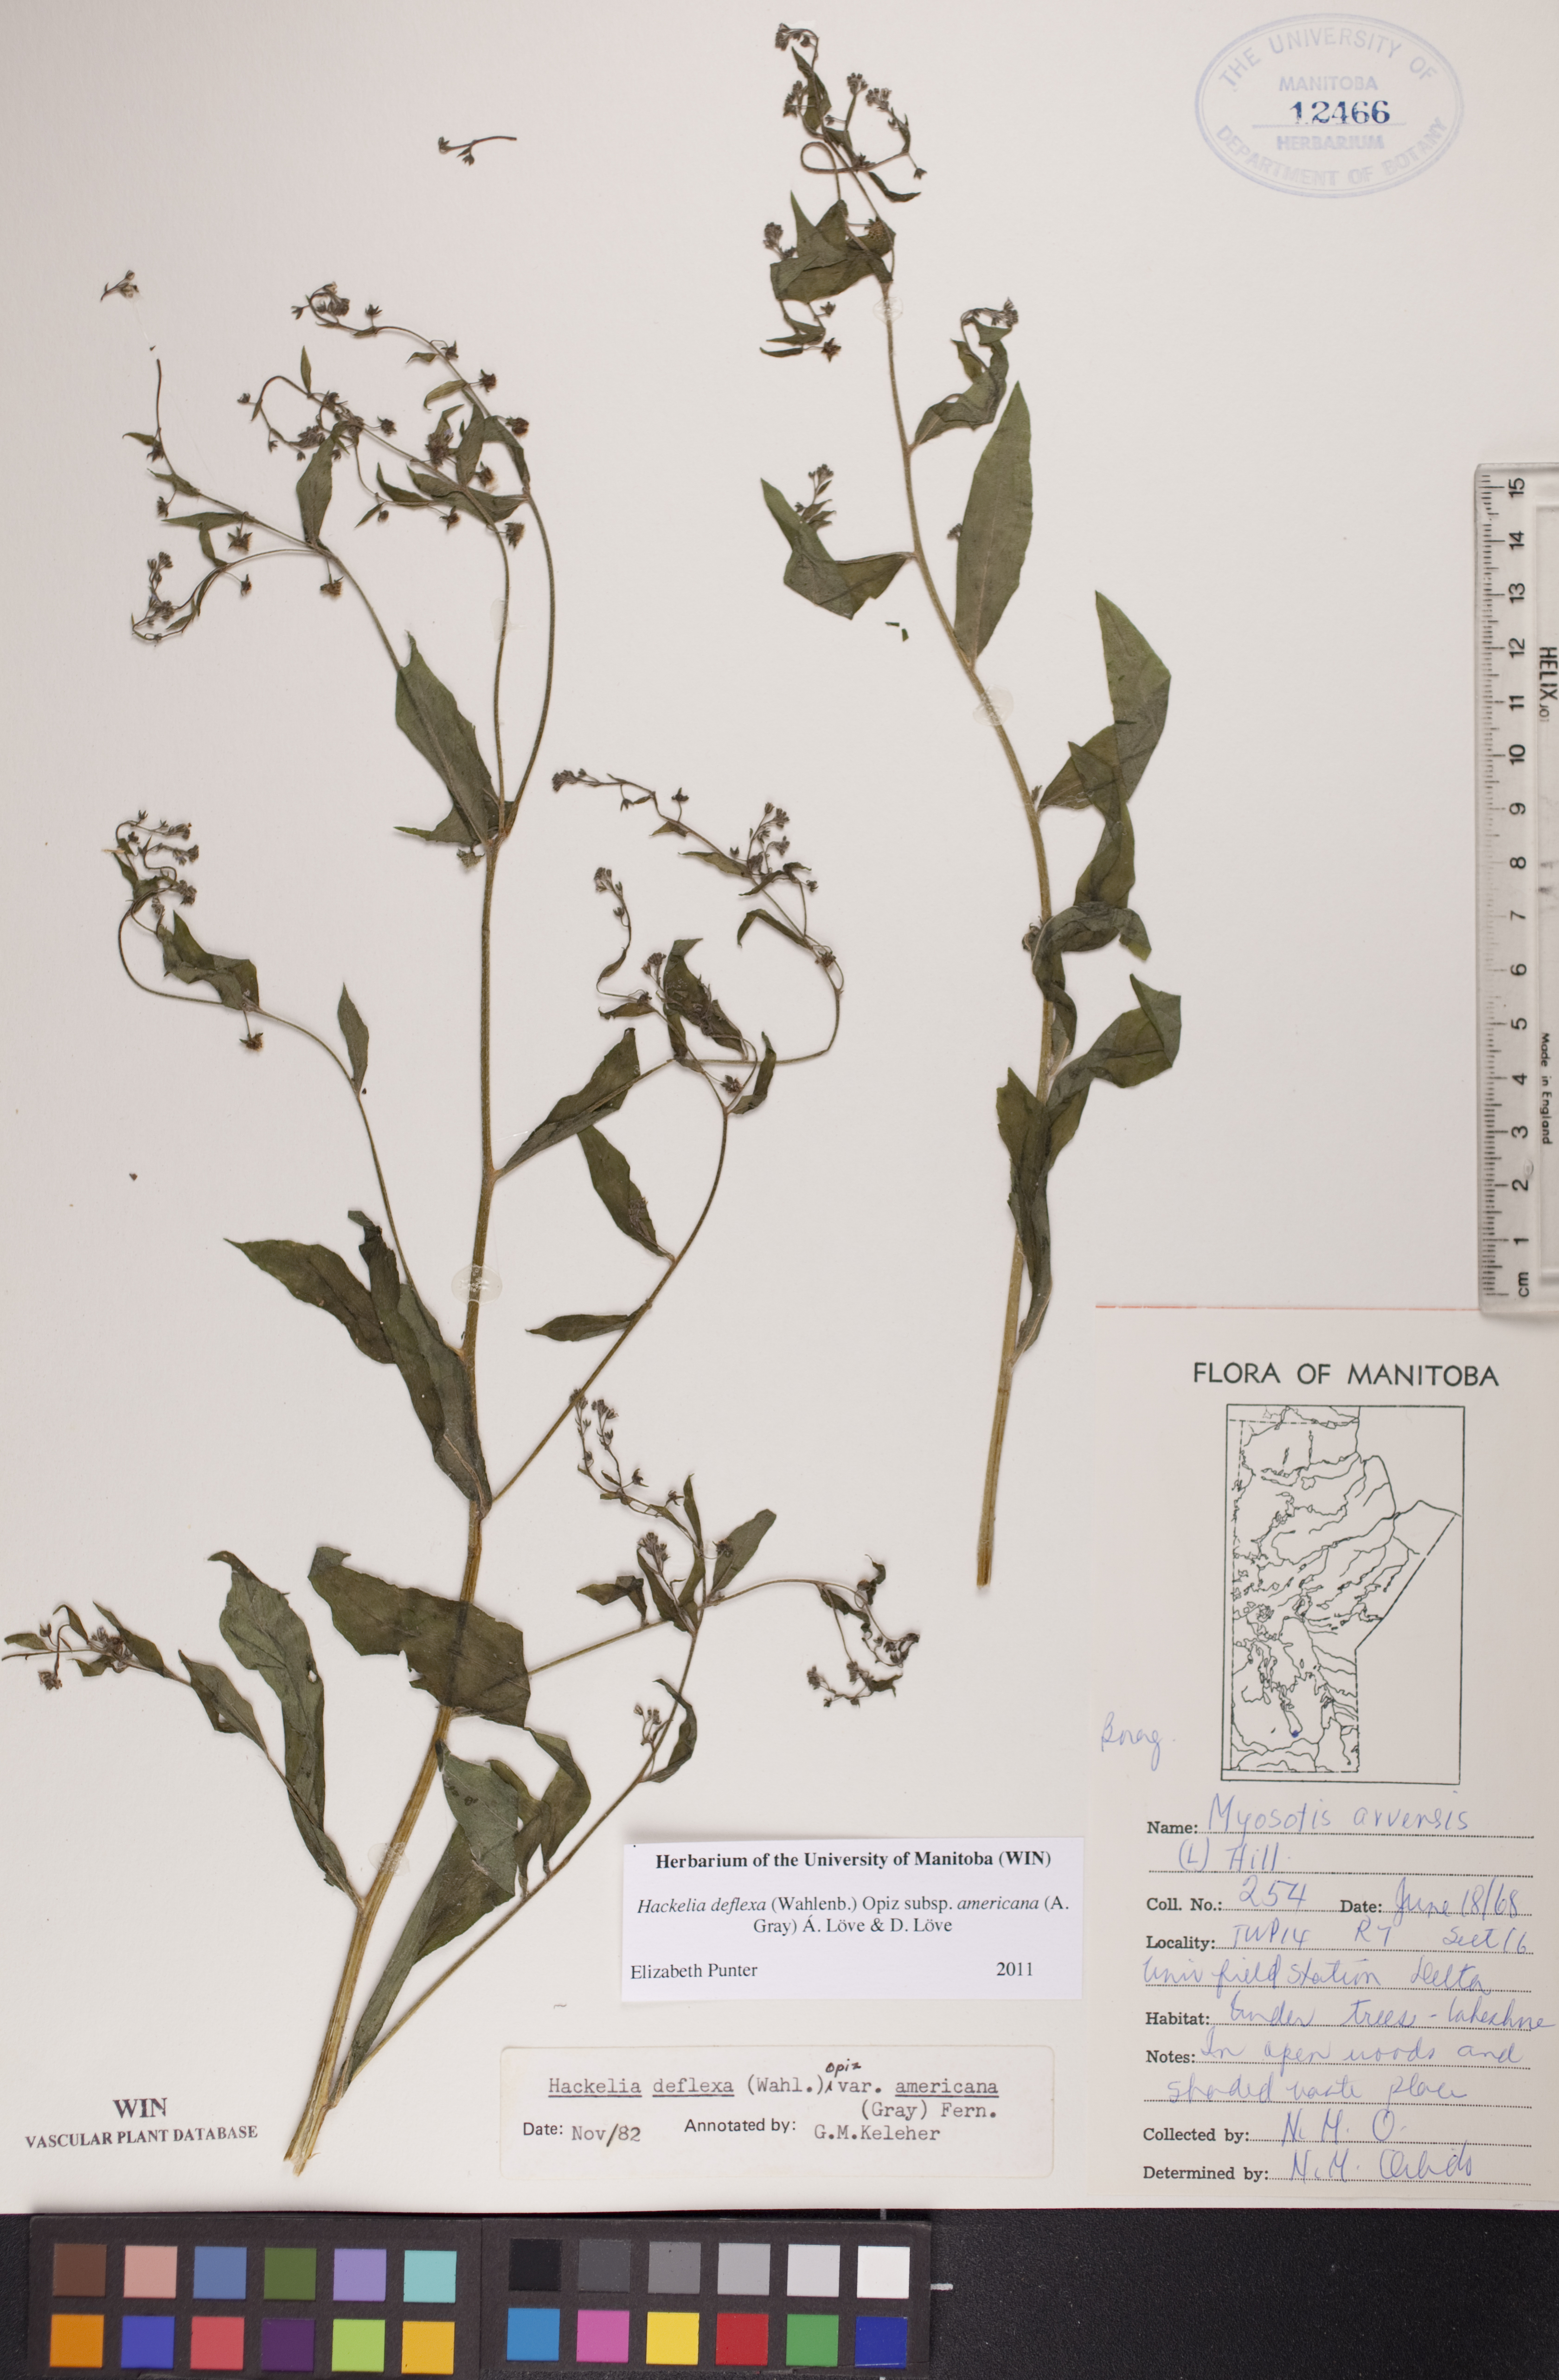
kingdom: Plantae
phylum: Tracheophyta
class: Magnoliopsida
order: Boraginales
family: Boraginaceae
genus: Hackelia
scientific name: Hackelia deflexa
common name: Nodding stickseed
